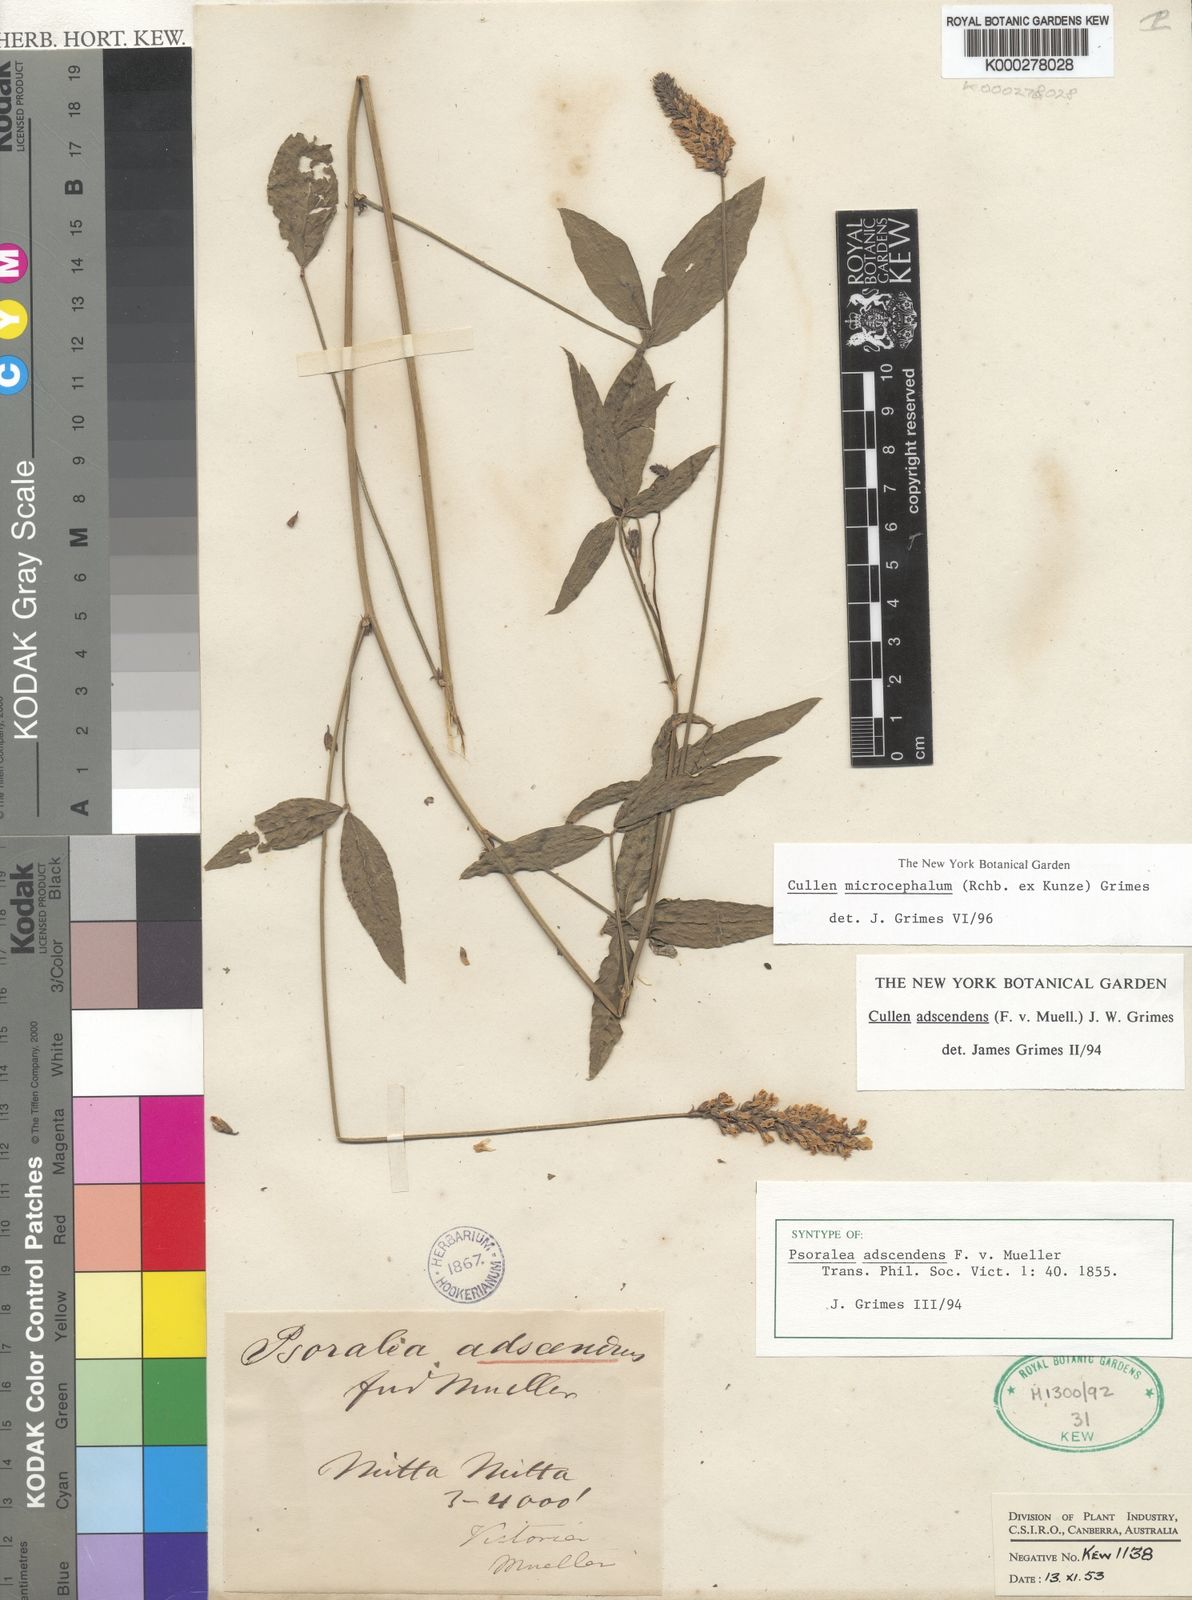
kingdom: Plantae
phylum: Tracheophyta
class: Magnoliopsida
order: Fabales
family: Fabaceae
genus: Cullen
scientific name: Cullen microcephalum
